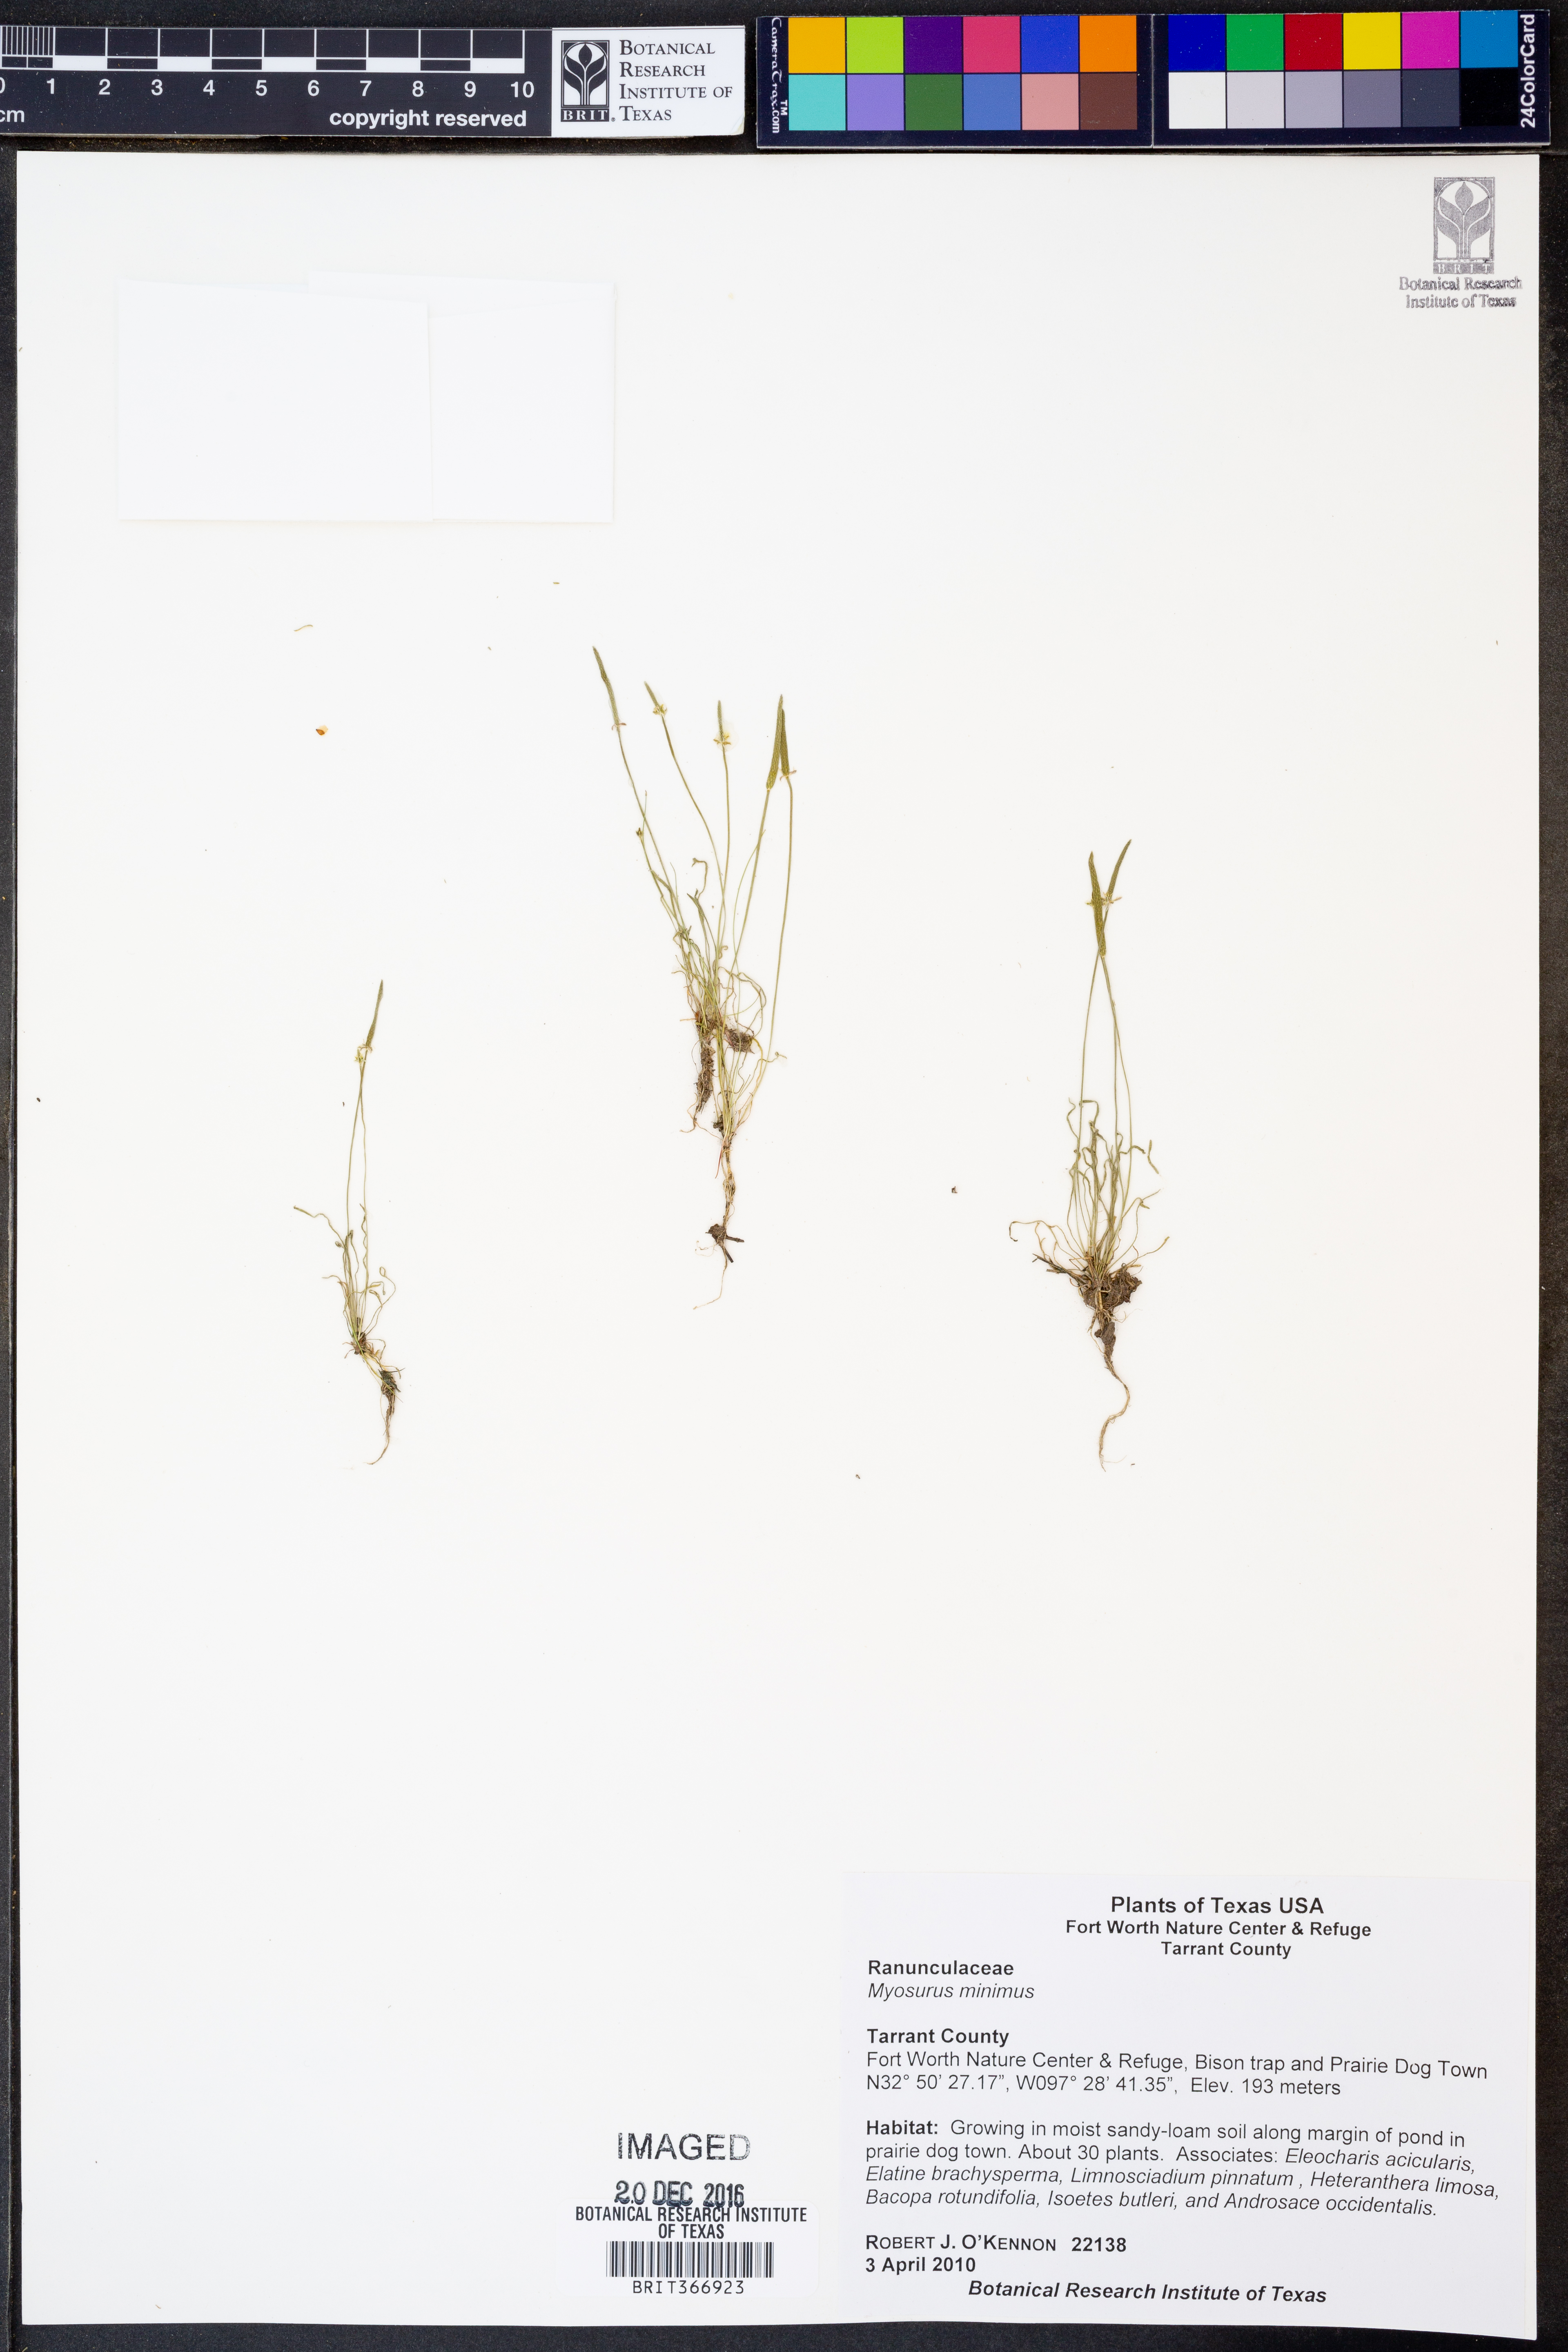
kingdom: Plantae
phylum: Tracheophyta
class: Magnoliopsida
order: Ranunculales
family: Ranunculaceae
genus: Myosurus
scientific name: Myosurus minimus
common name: Mousetail
